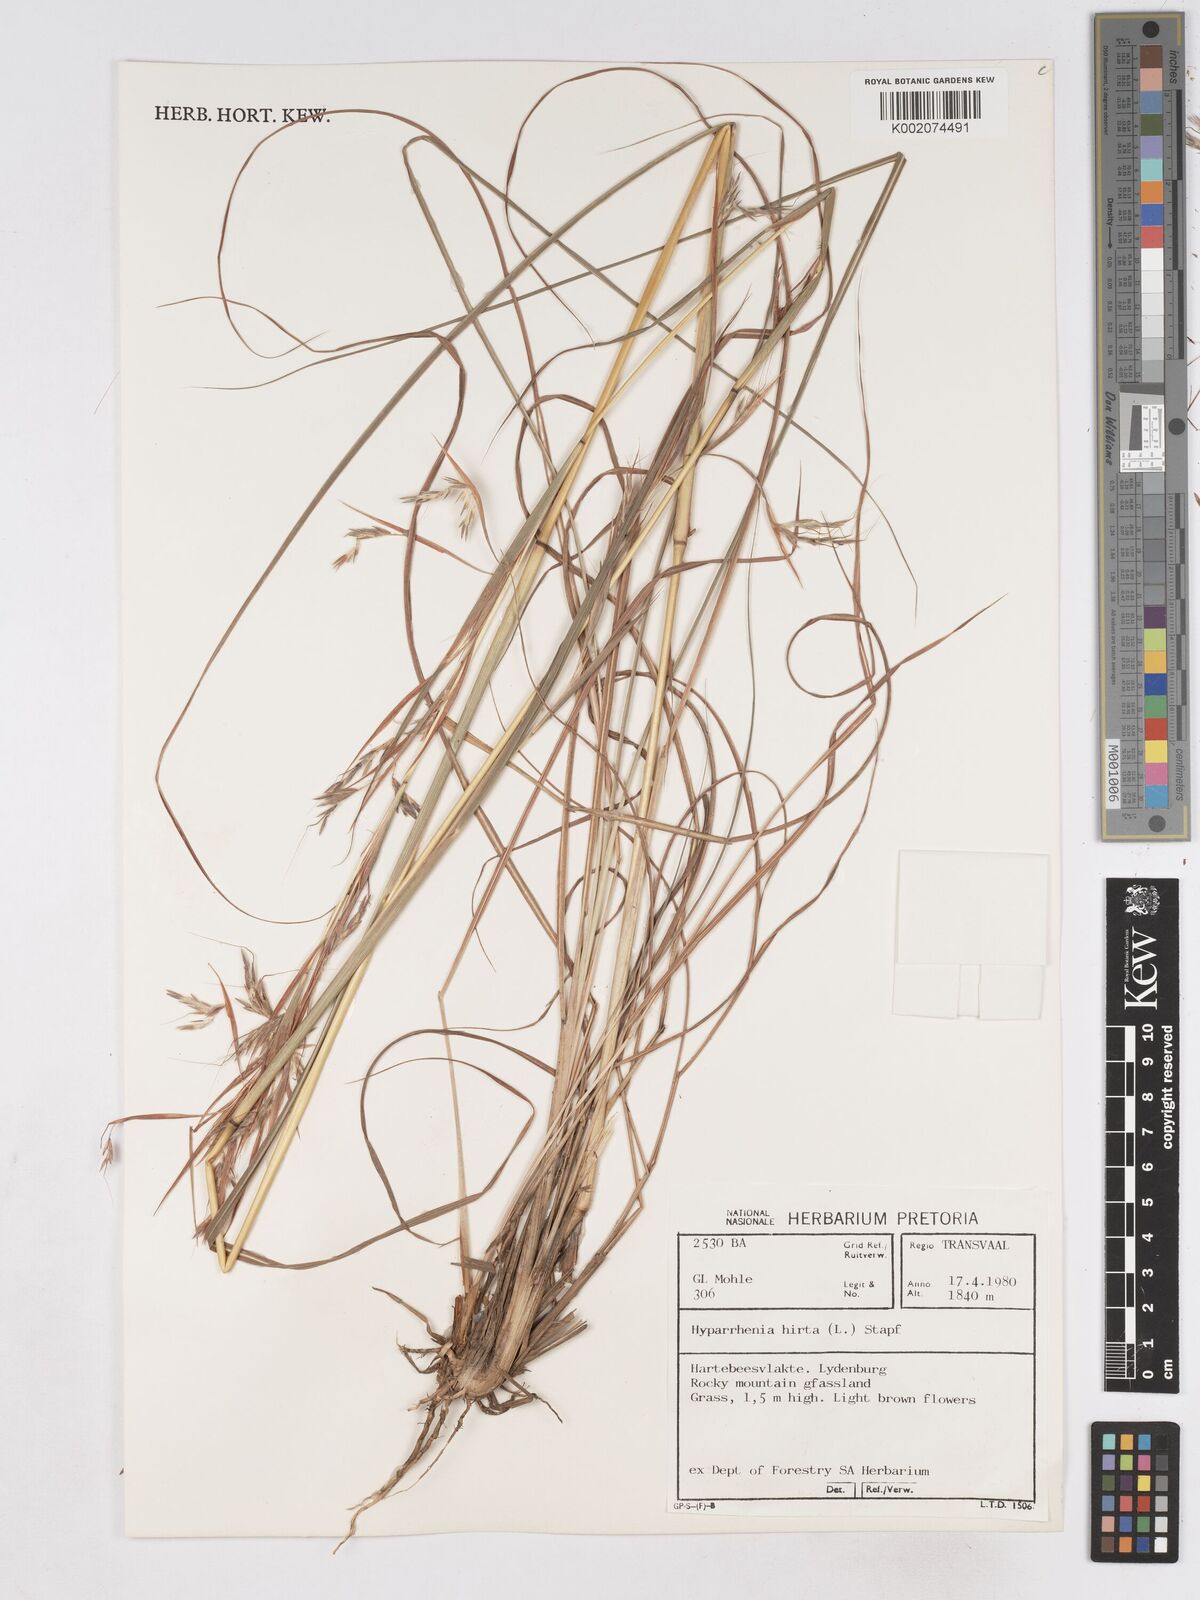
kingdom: Plantae
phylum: Tracheophyta
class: Liliopsida
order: Poales
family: Poaceae
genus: Hyparrhenia
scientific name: Hyparrhenia hirta
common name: Thatching grass
